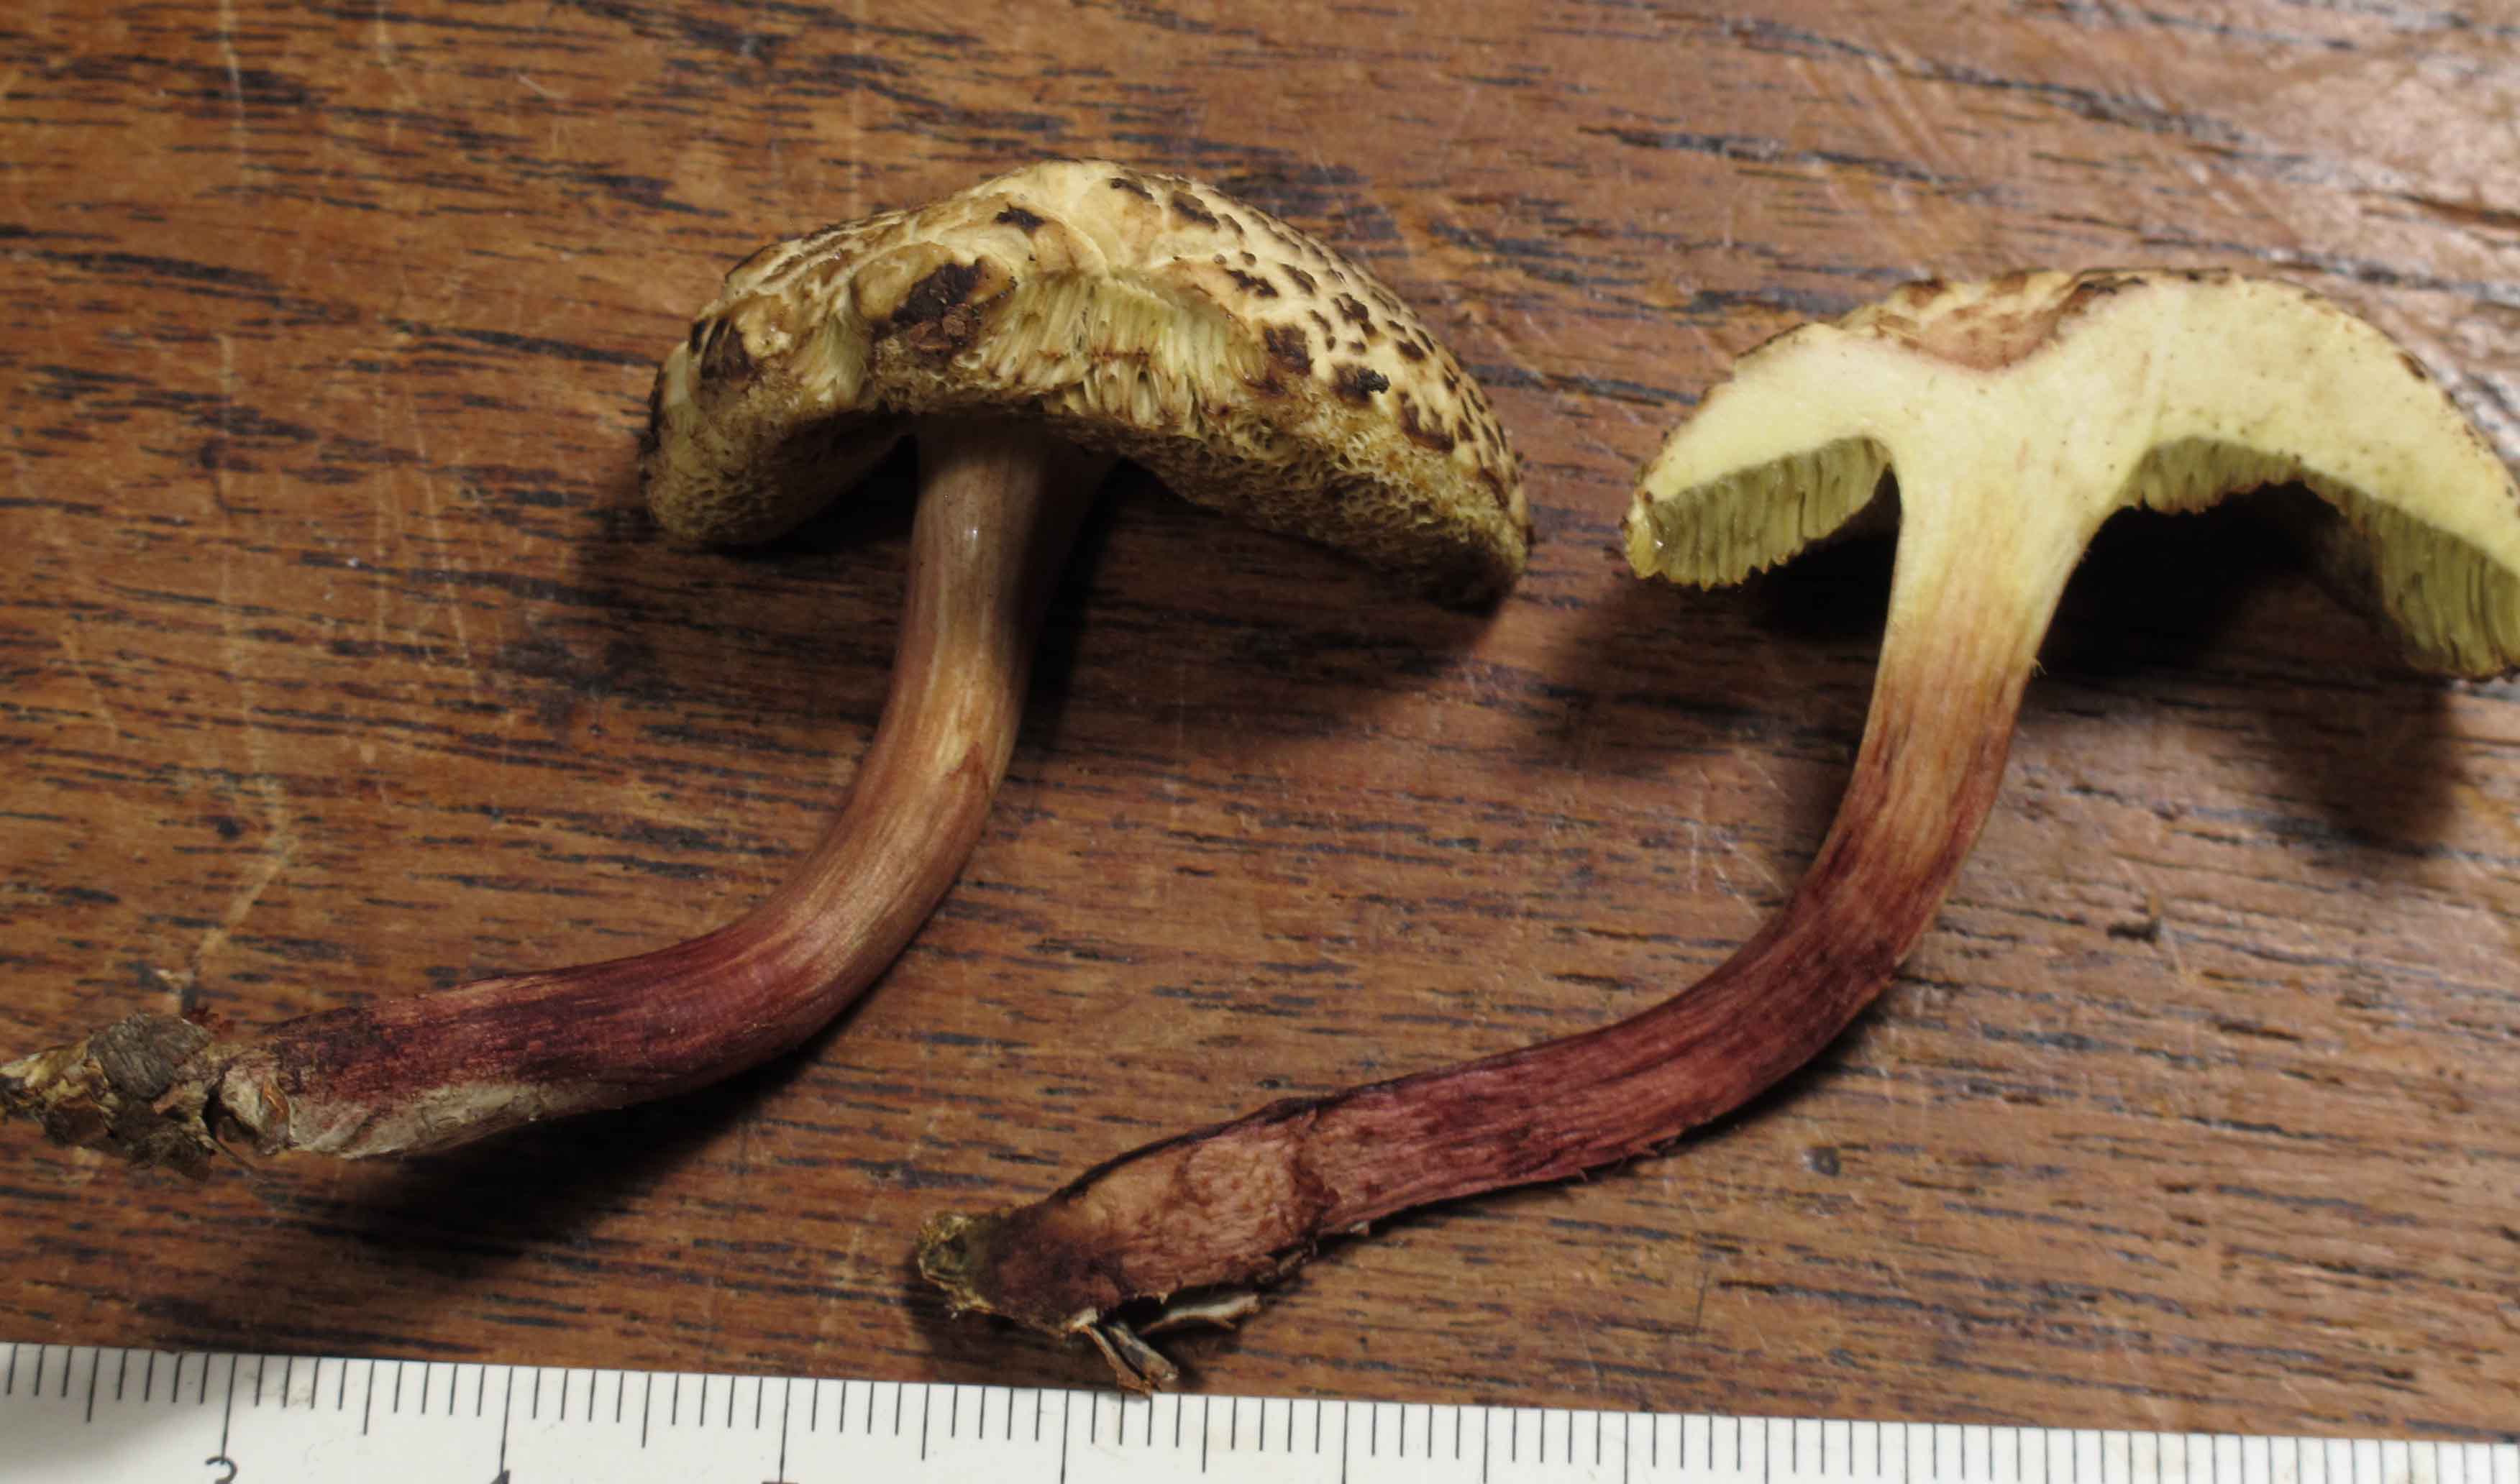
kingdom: Fungi
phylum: Basidiomycota
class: Agaricomycetes
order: Boletales
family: Boletaceae
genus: Xerocomellus
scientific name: Xerocomellus chrysenteron
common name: rødsprukken rørhat
